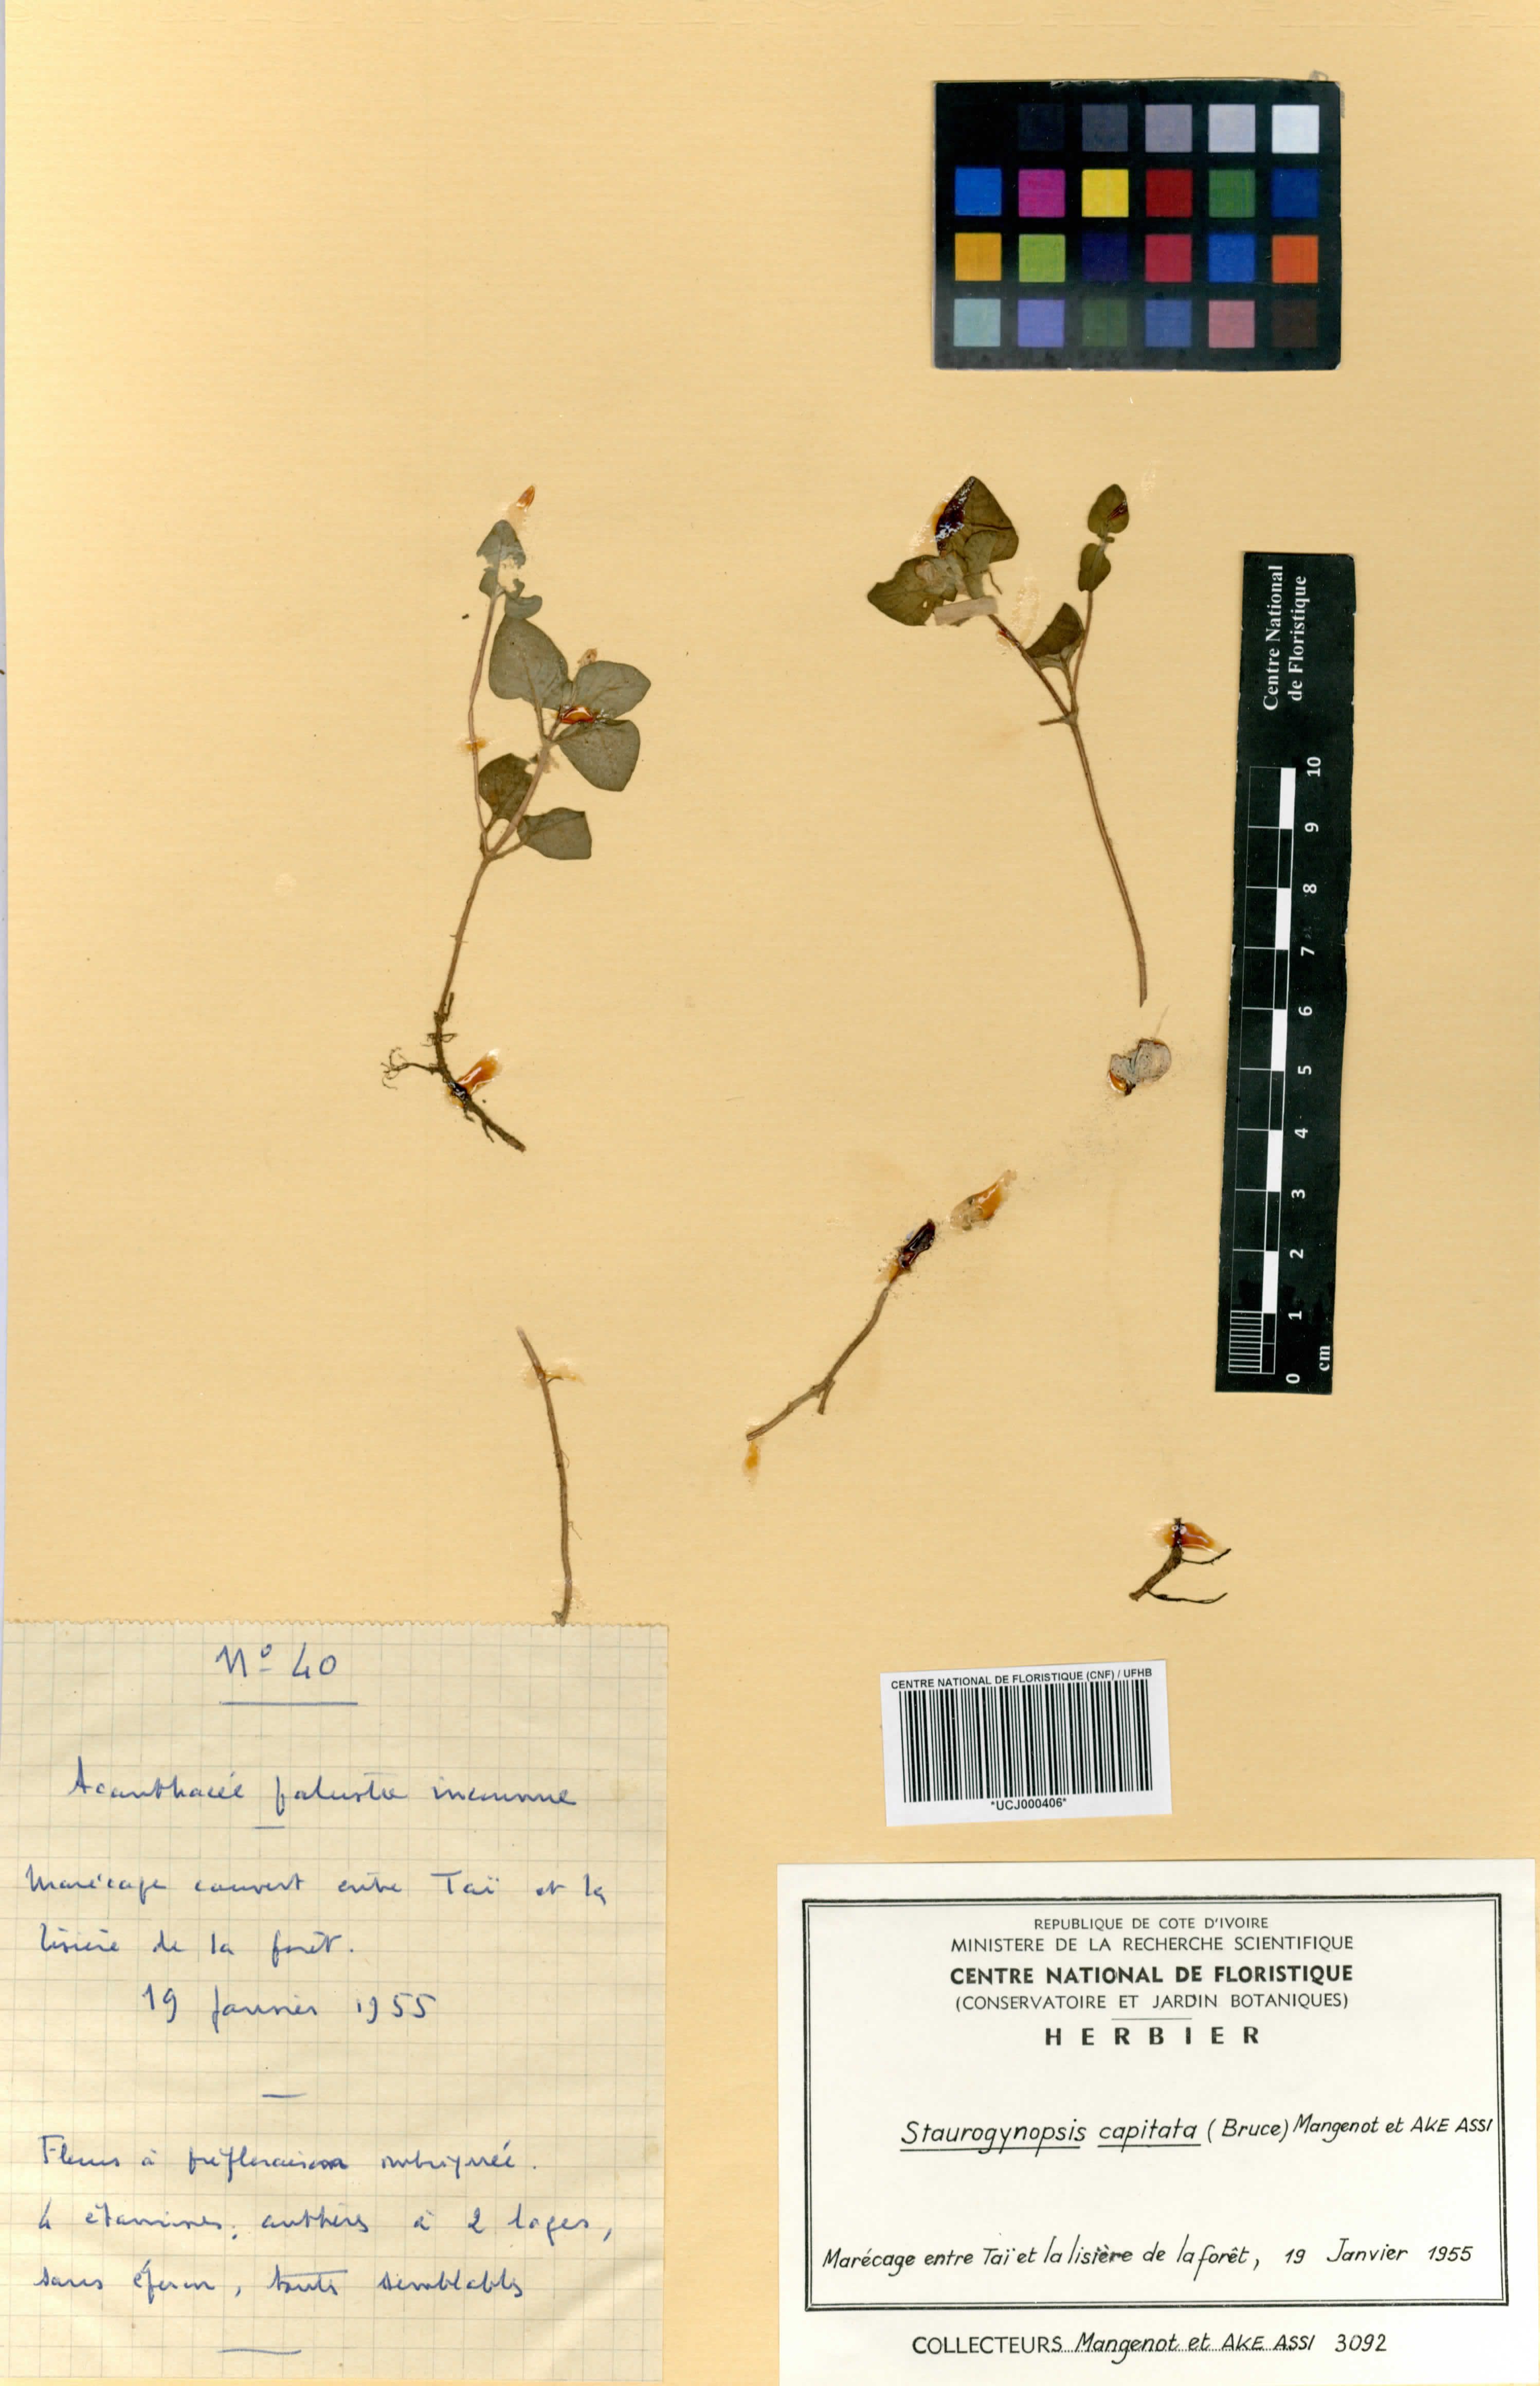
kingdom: Plantae
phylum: Tracheophyta
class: Magnoliopsida
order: Lamiales
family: Acanthaceae
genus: Staurogyne
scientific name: Staurogyne capitata
